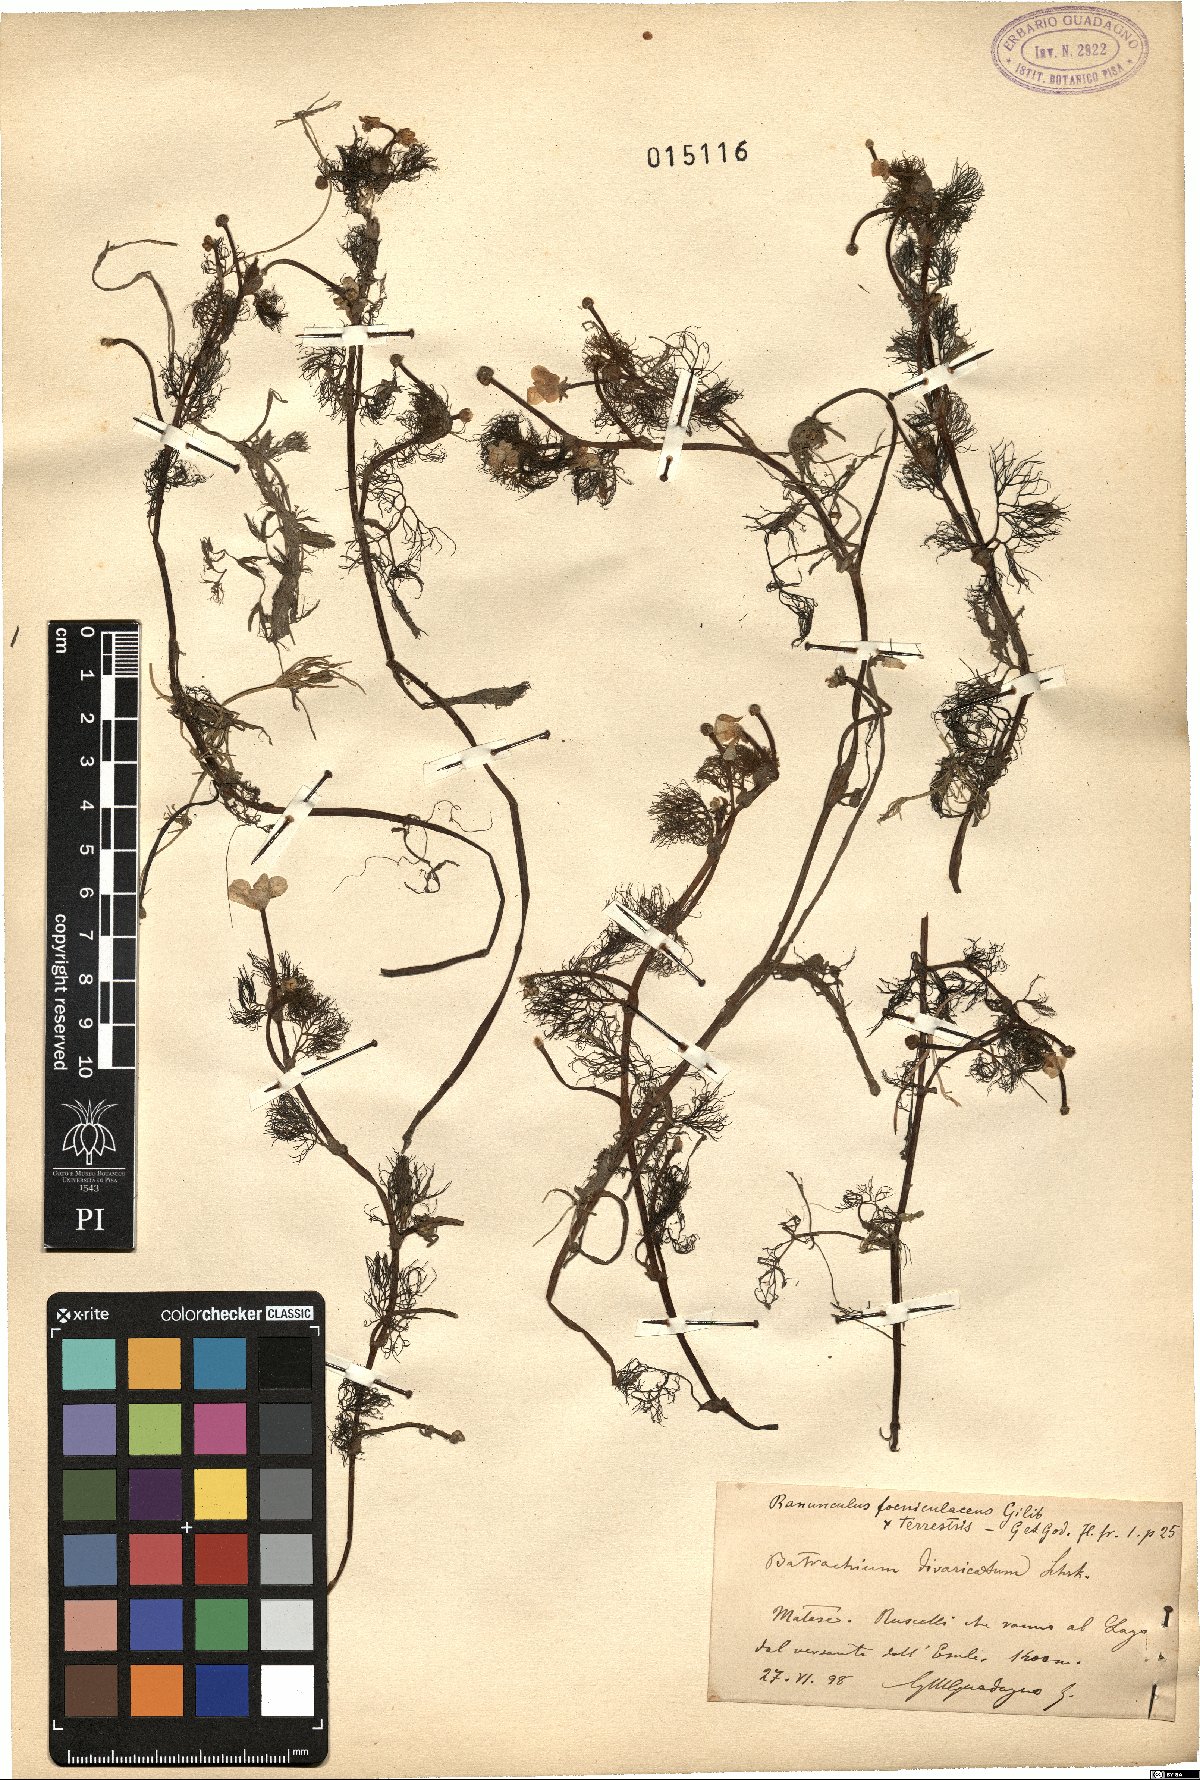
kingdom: Plantae
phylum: Tracheophyta
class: Magnoliopsida
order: Ranunculales
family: Ranunculaceae
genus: Ranunculus
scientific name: Ranunculus trichophyllus
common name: Thread-leaved water-crowfoot
